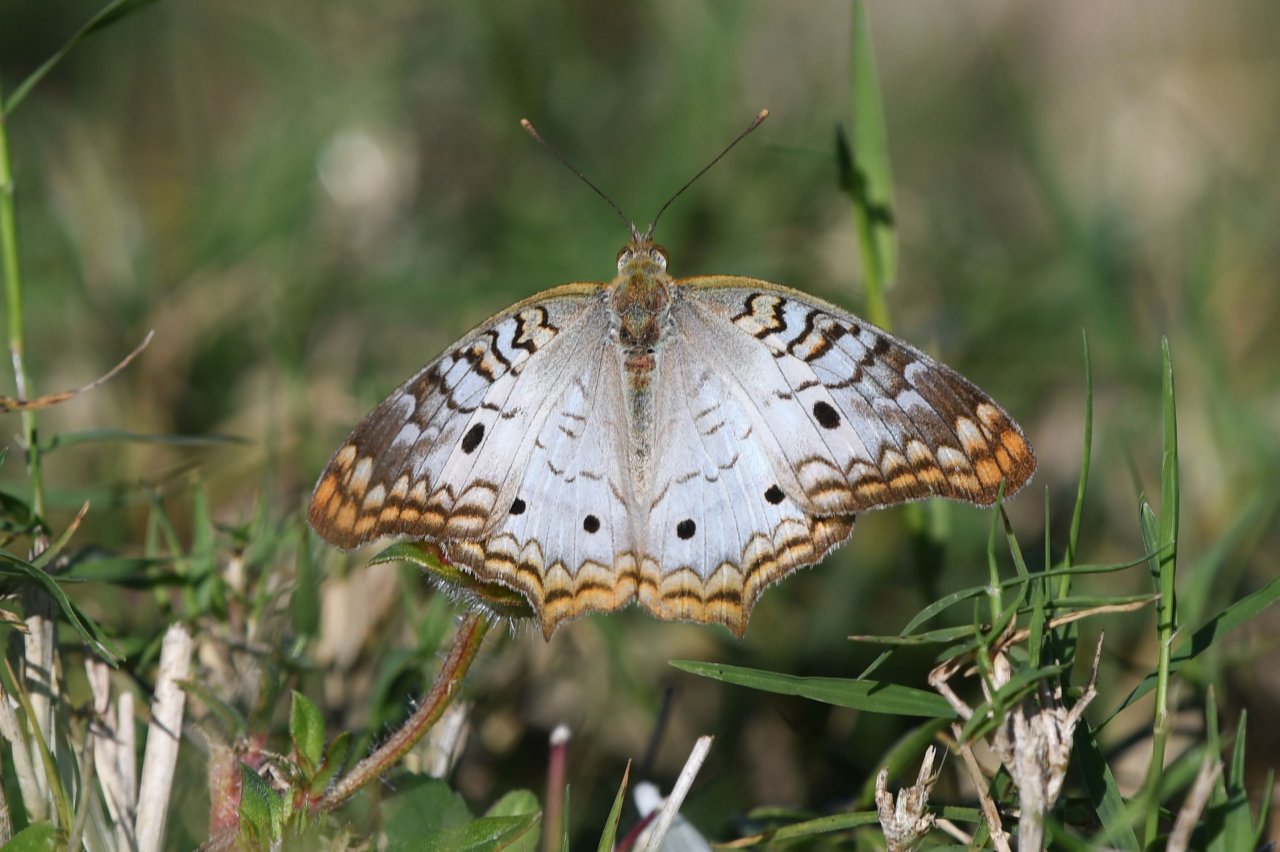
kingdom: Animalia
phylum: Arthropoda
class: Insecta
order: Lepidoptera
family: Nymphalidae
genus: Anartia
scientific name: Anartia jatrophae
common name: White Peacock
